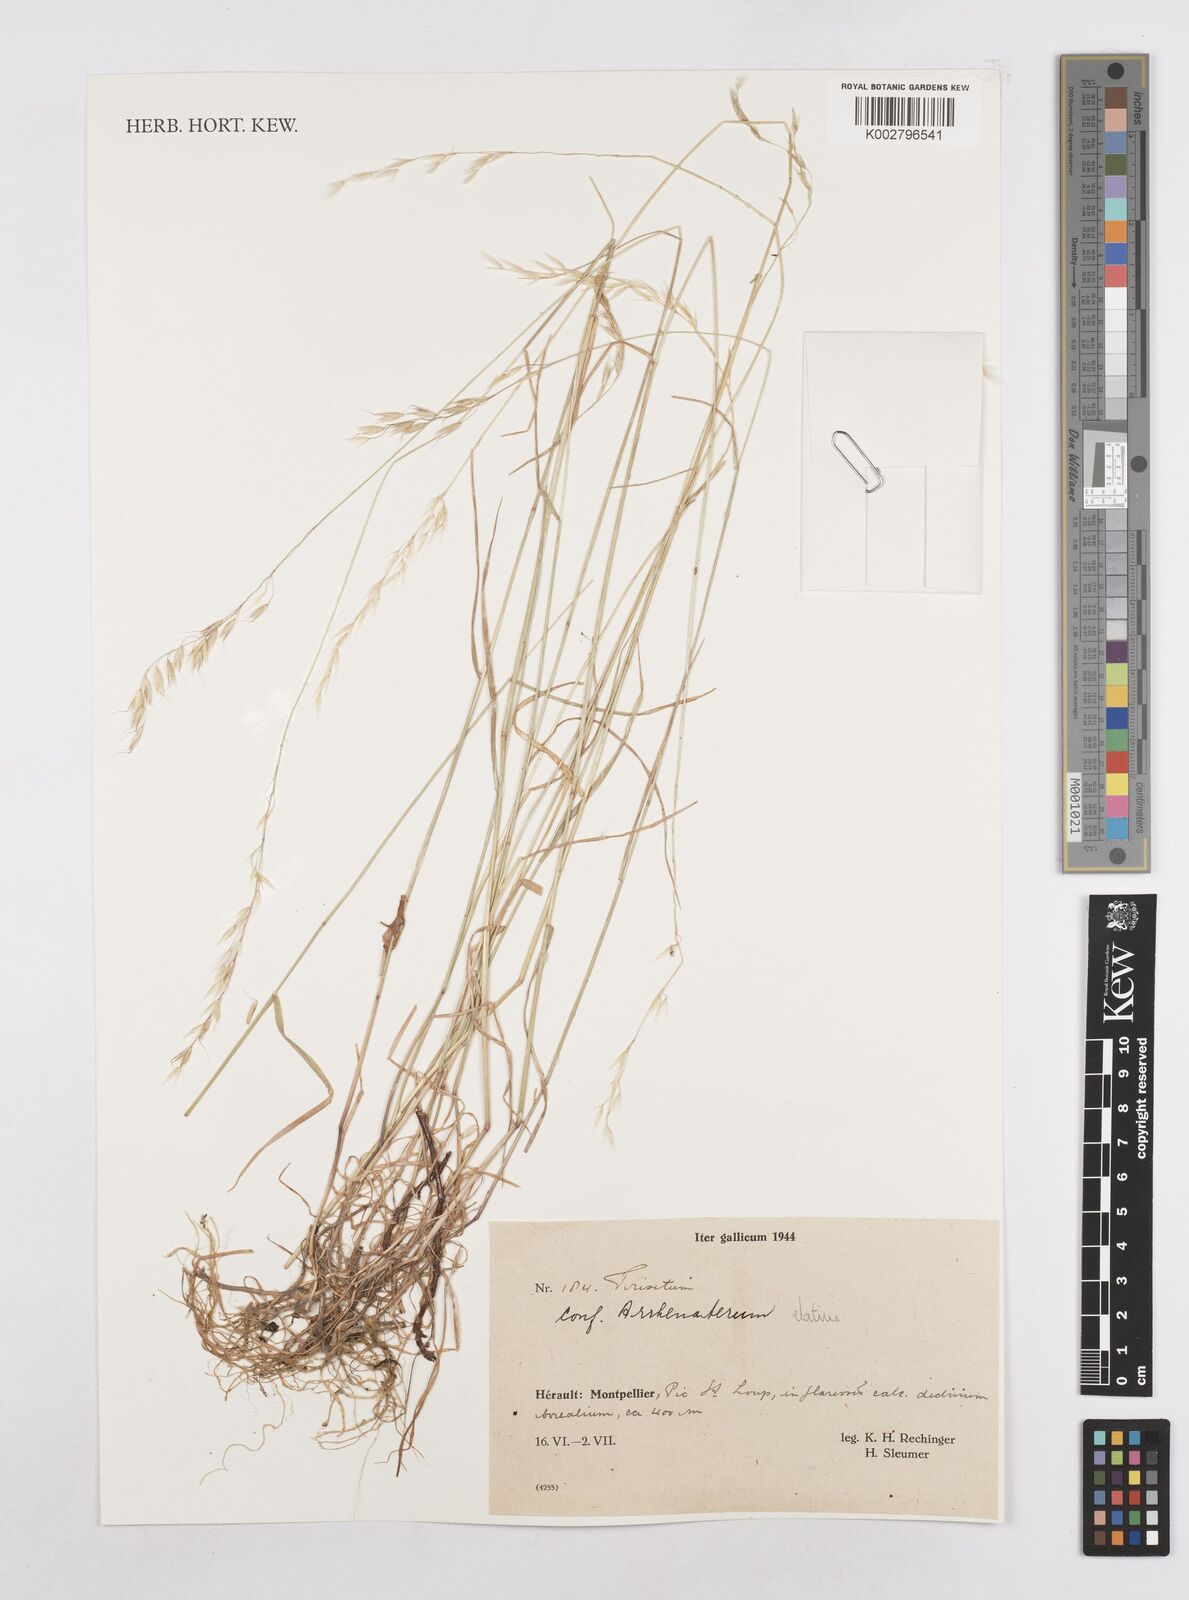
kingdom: Plantae
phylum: Tracheophyta
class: Liliopsida
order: Poales
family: Poaceae
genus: Arrhenatherum
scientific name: Arrhenatherum elatius
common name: Tall oatgrass
